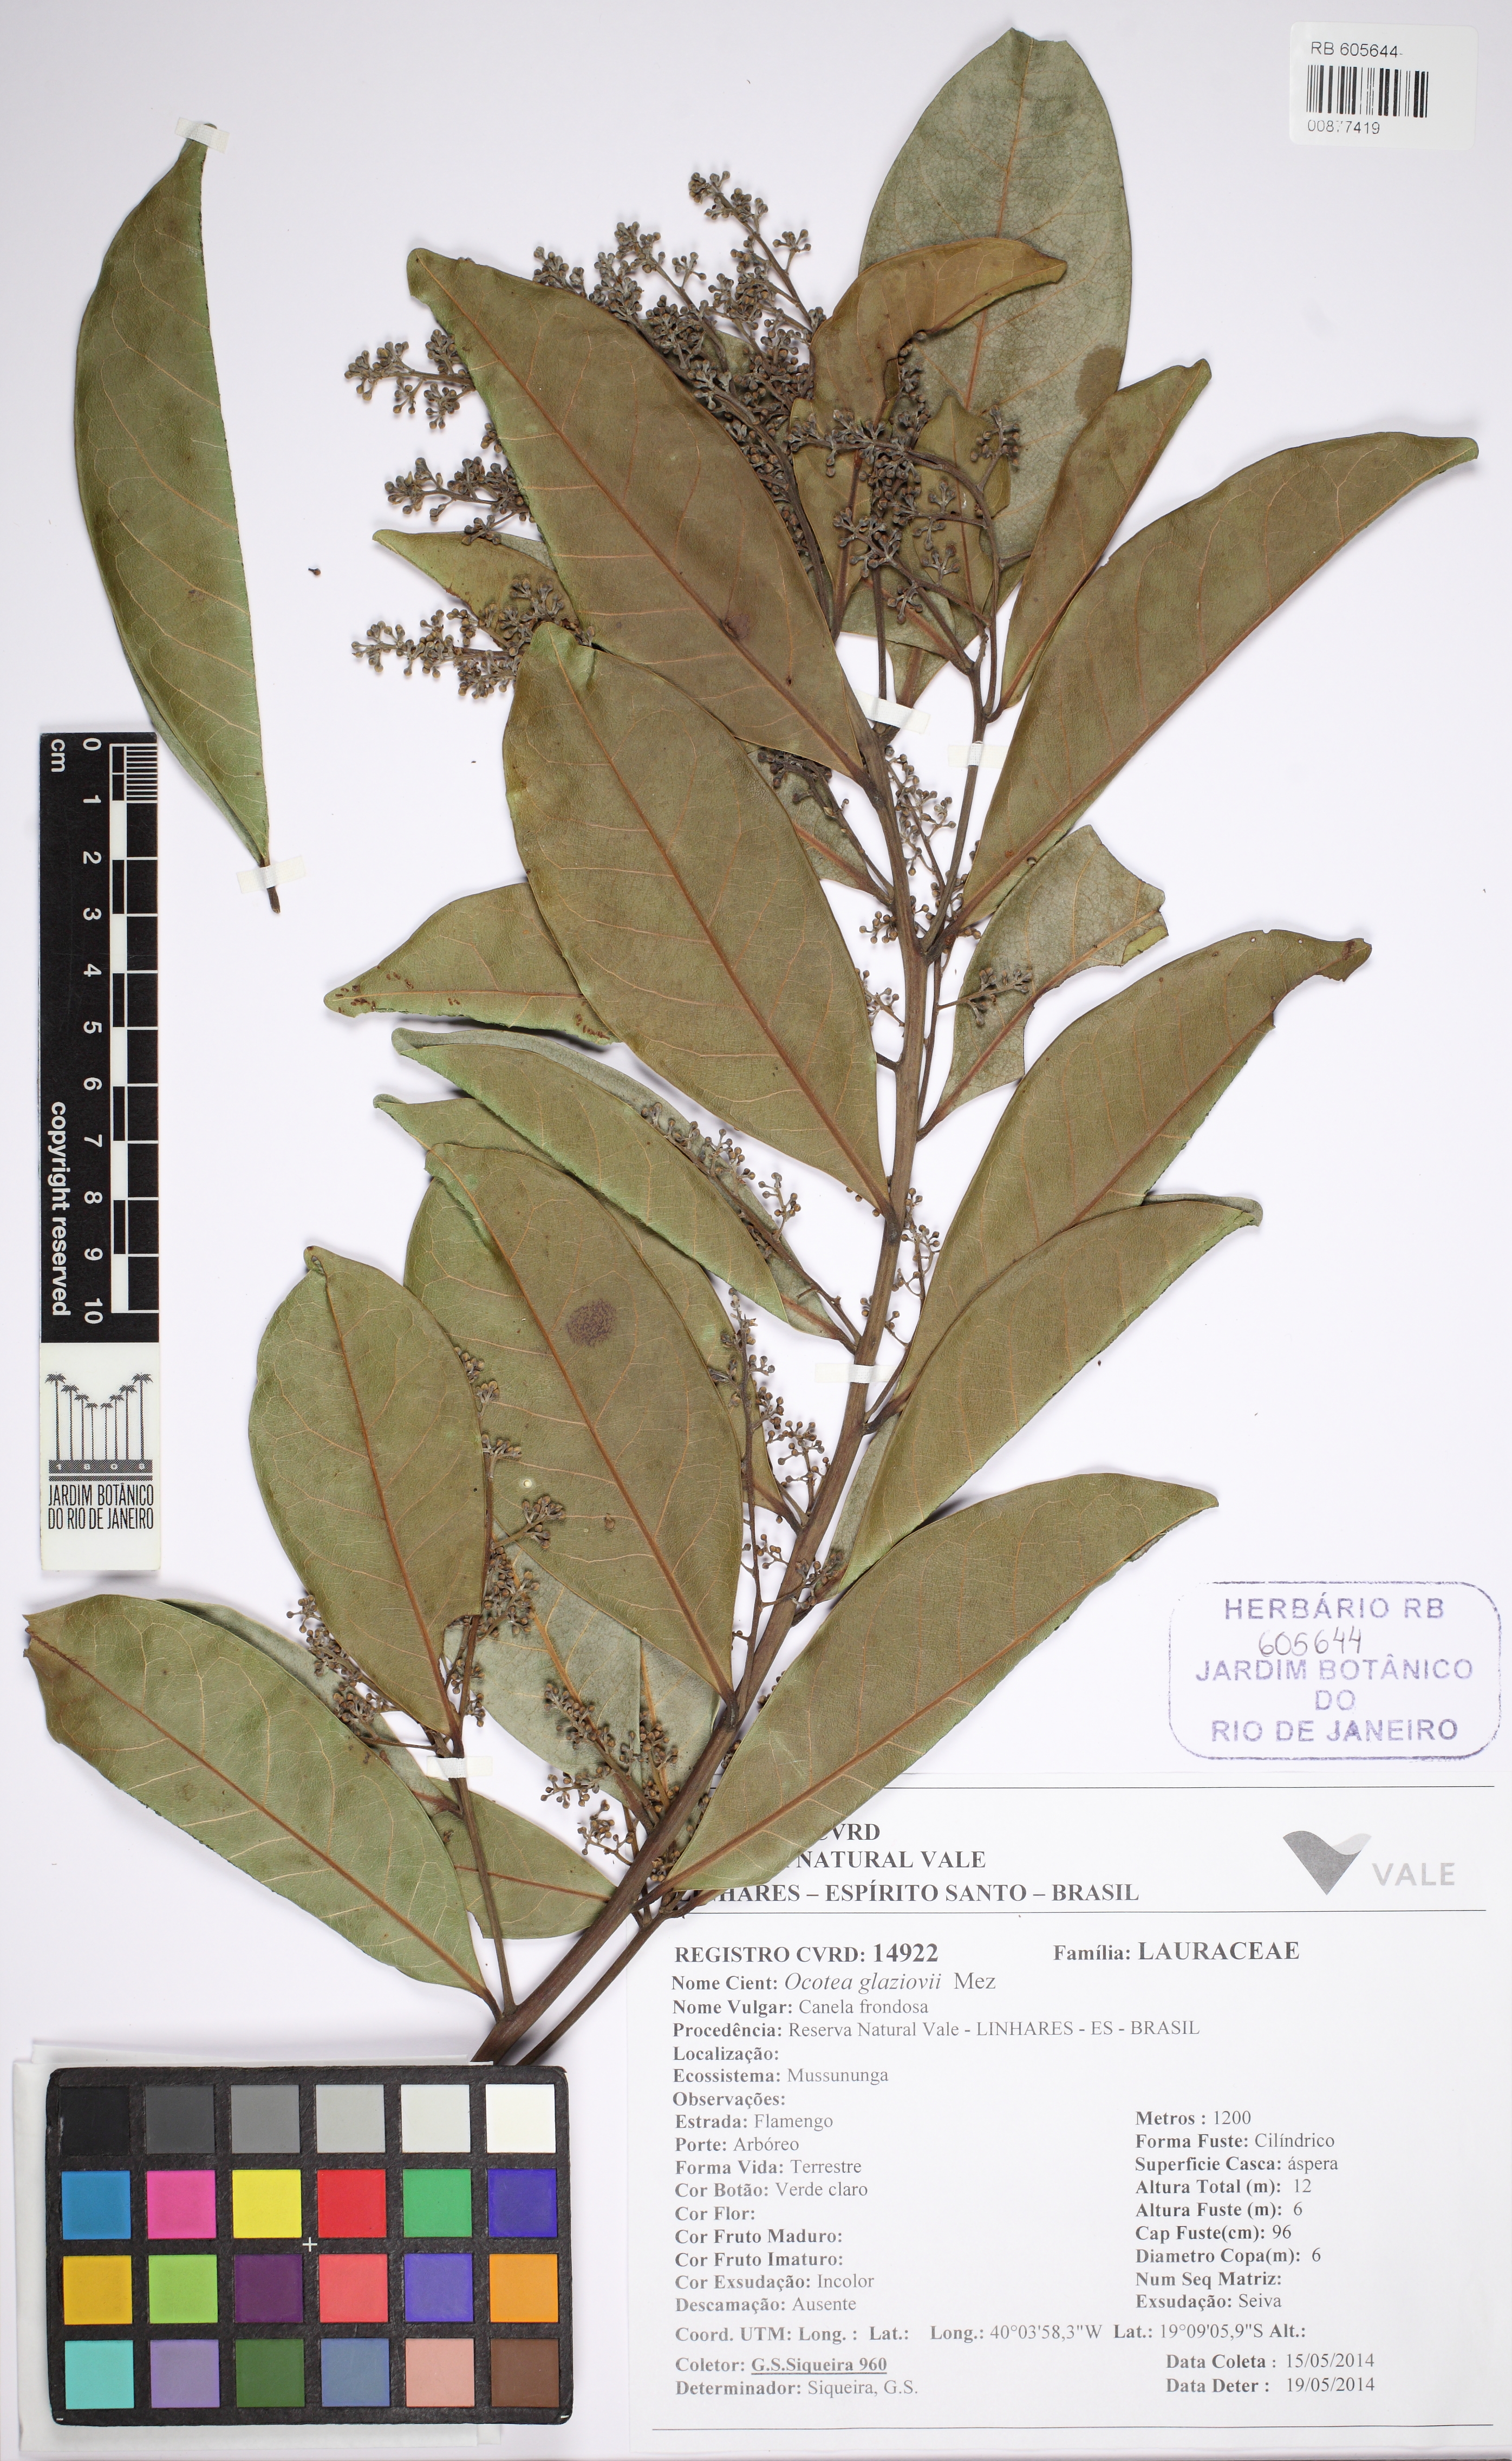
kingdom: Plantae
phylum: Tracheophyta
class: Magnoliopsida
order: Laurales
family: Lauraceae
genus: Ocotea
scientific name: Ocotea glaziovii
